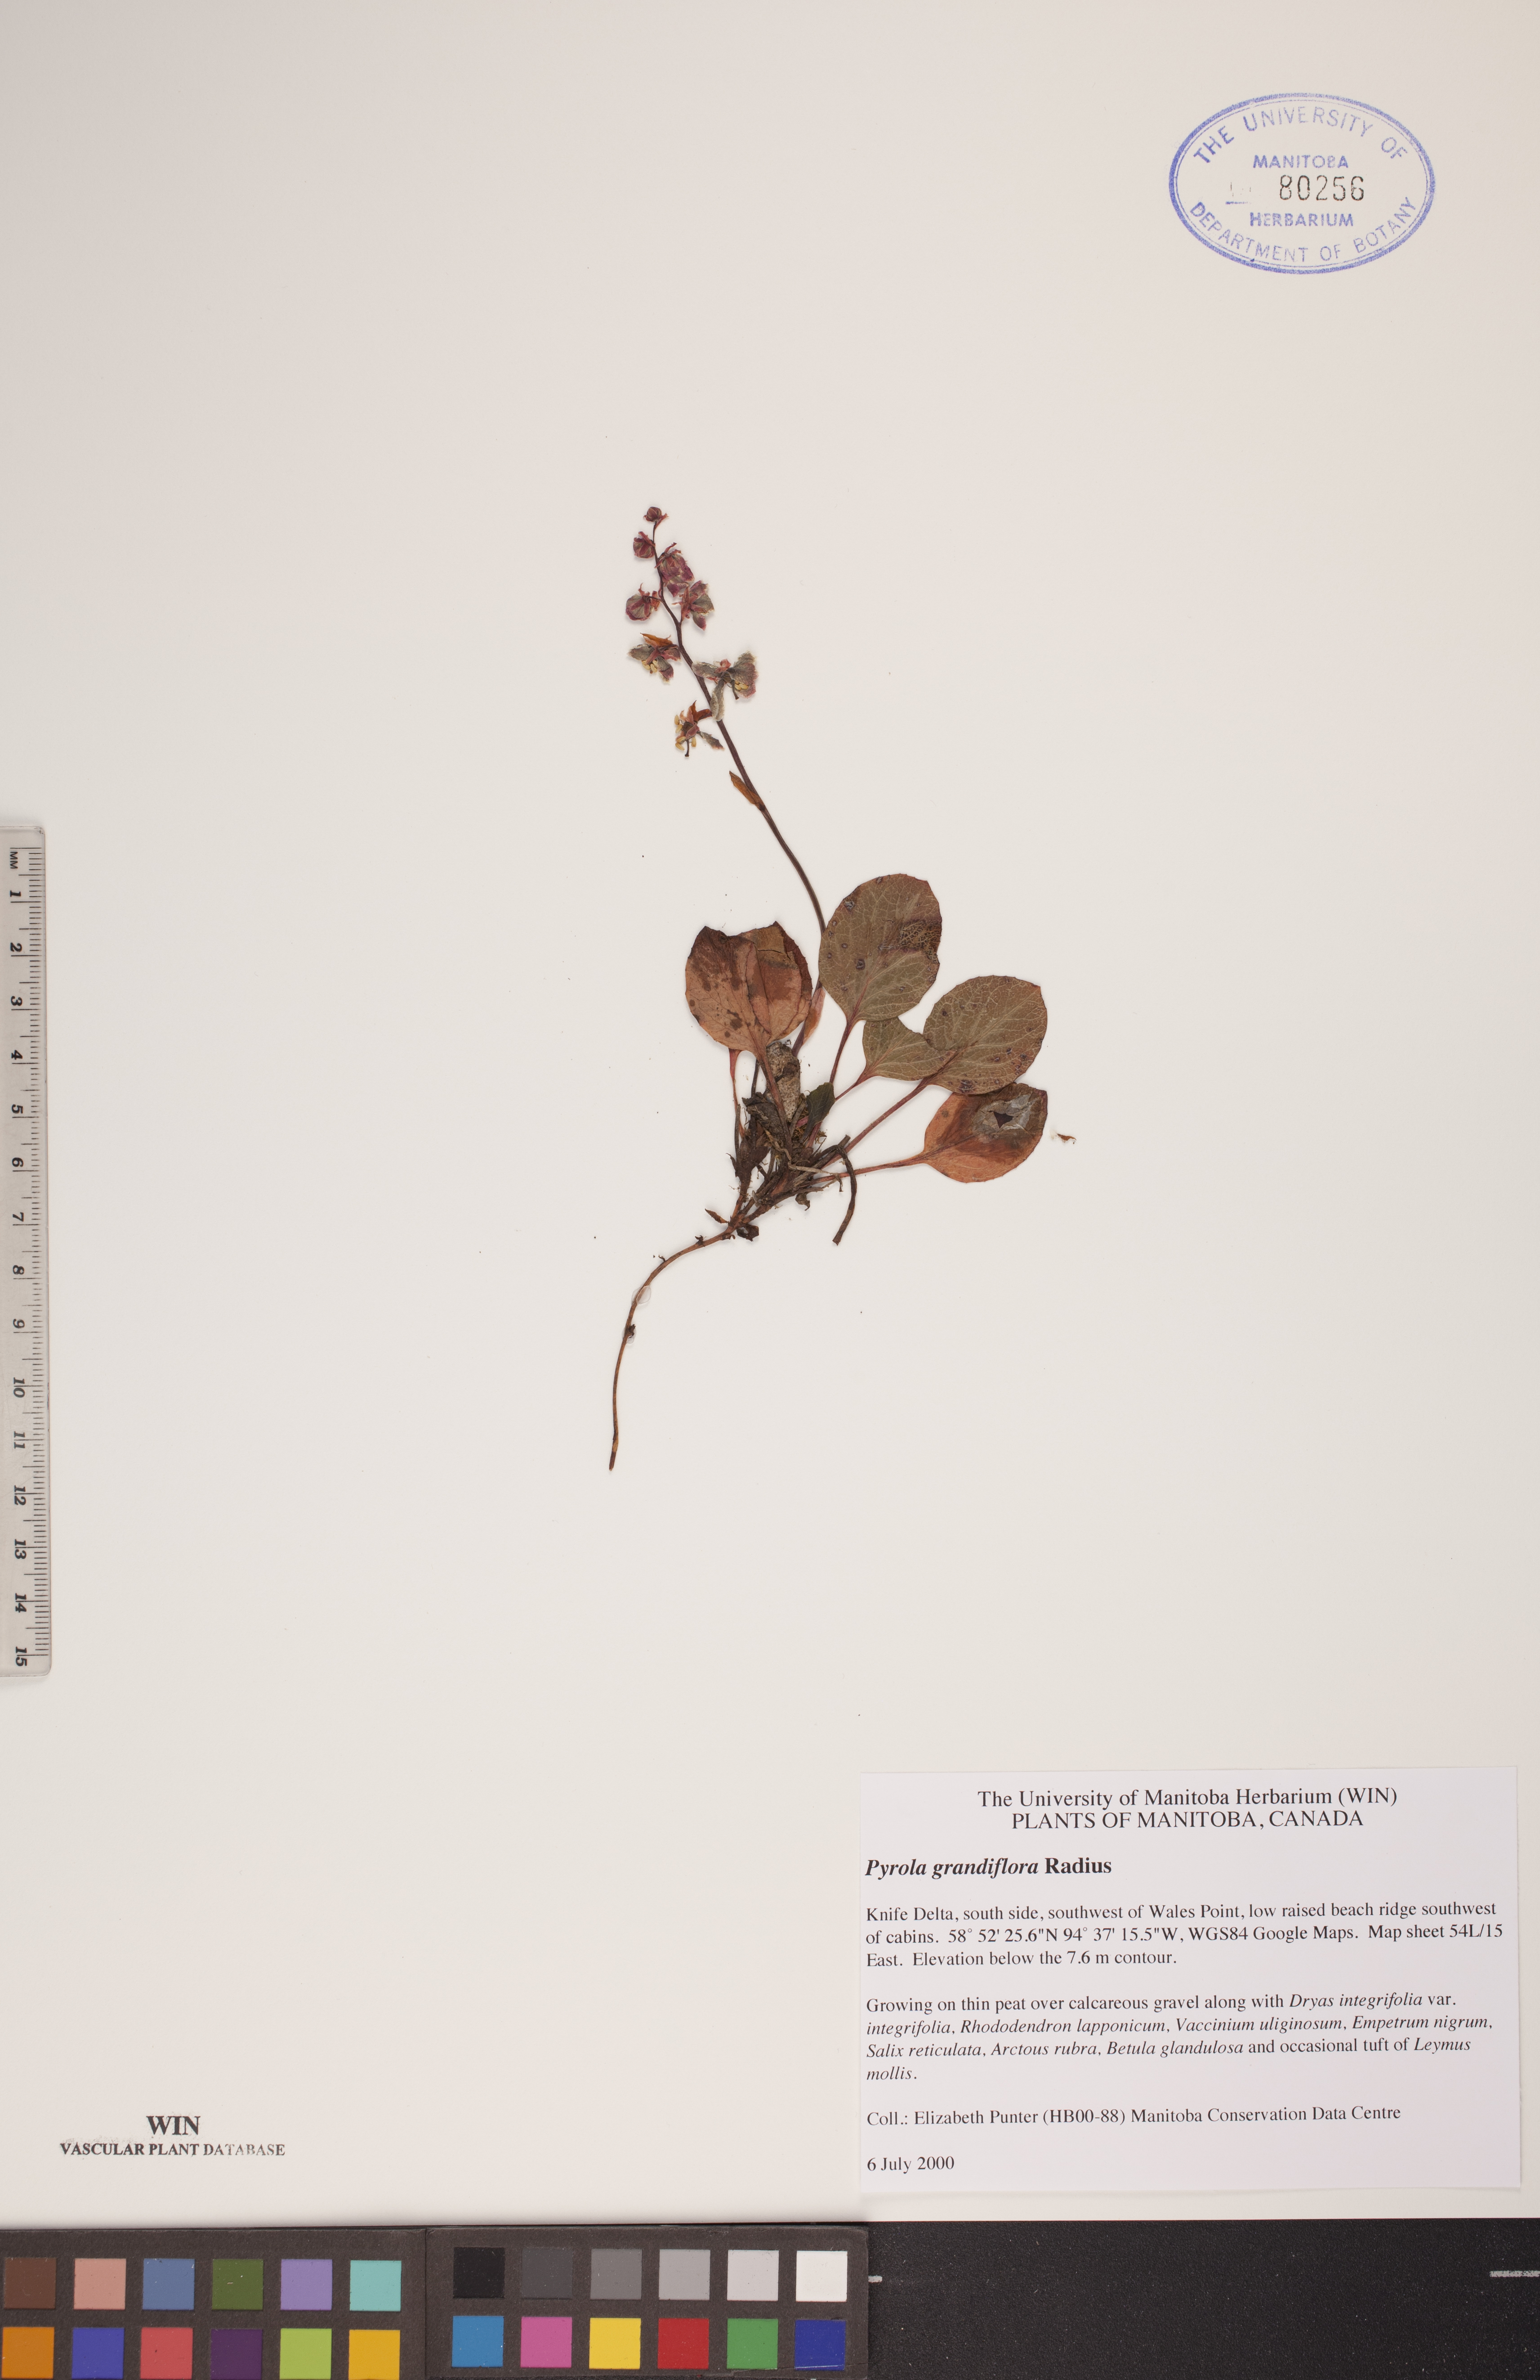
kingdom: Plantae
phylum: Tracheophyta
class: Magnoliopsida
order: Ericales
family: Ericaceae
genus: Pyrola
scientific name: Pyrola grandiflora
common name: Arctic pyrola
